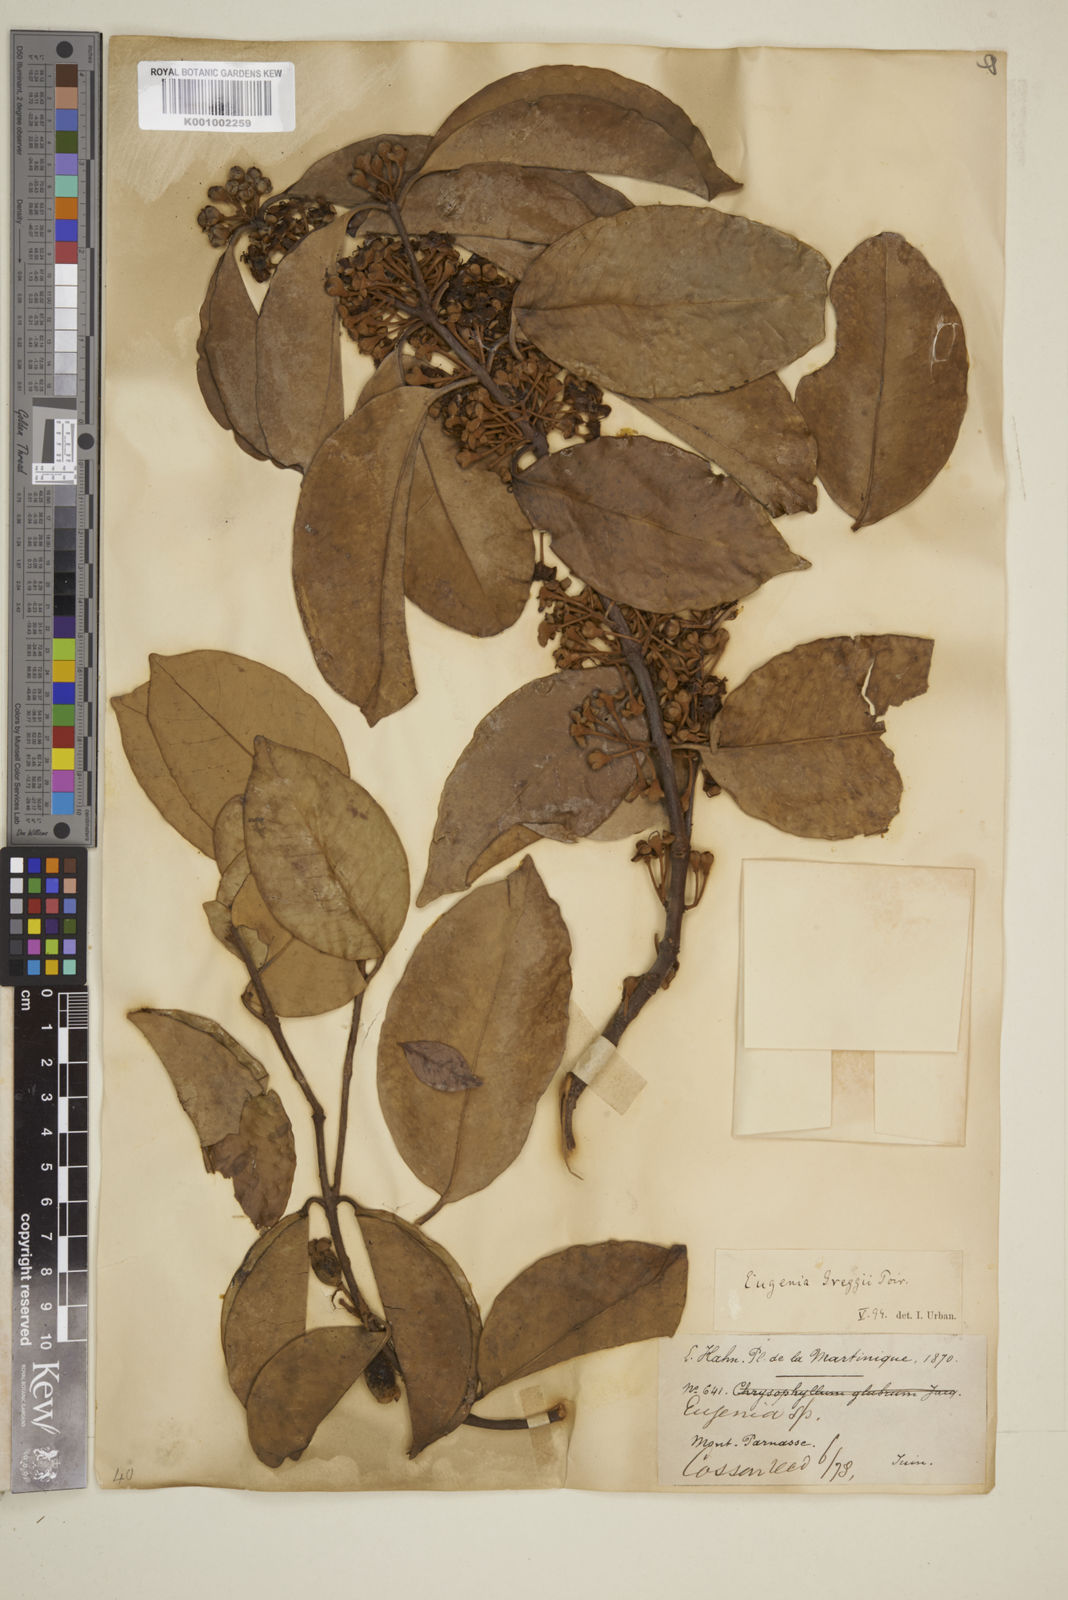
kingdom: Plantae
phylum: Tracheophyta
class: Magnoliopsida
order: Myrtales
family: Myrtaceae
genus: Eugenia
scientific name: Eugenia greggii
